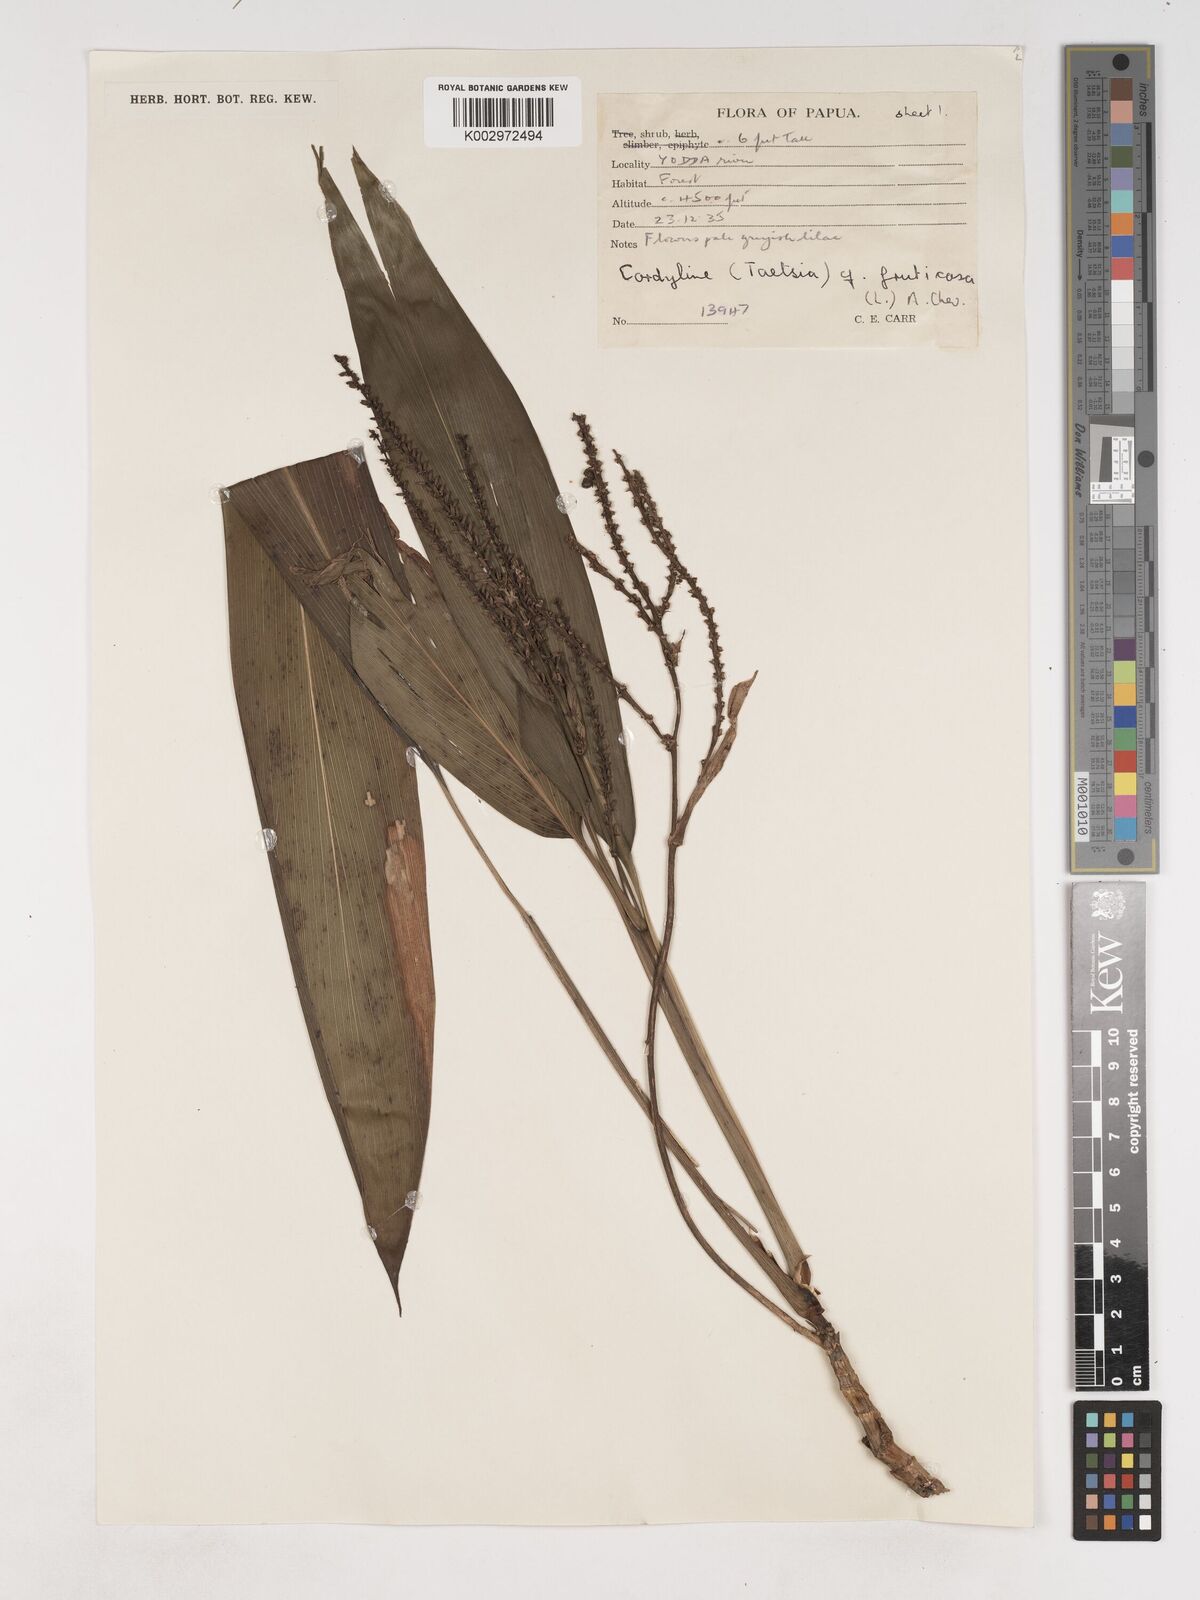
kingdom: Plantae
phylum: Tracheophyta
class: Liliopsida
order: Asparagales
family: Asparagaceae
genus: Cordyline
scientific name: Cordyline fruticosa
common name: Good-luck-plant
